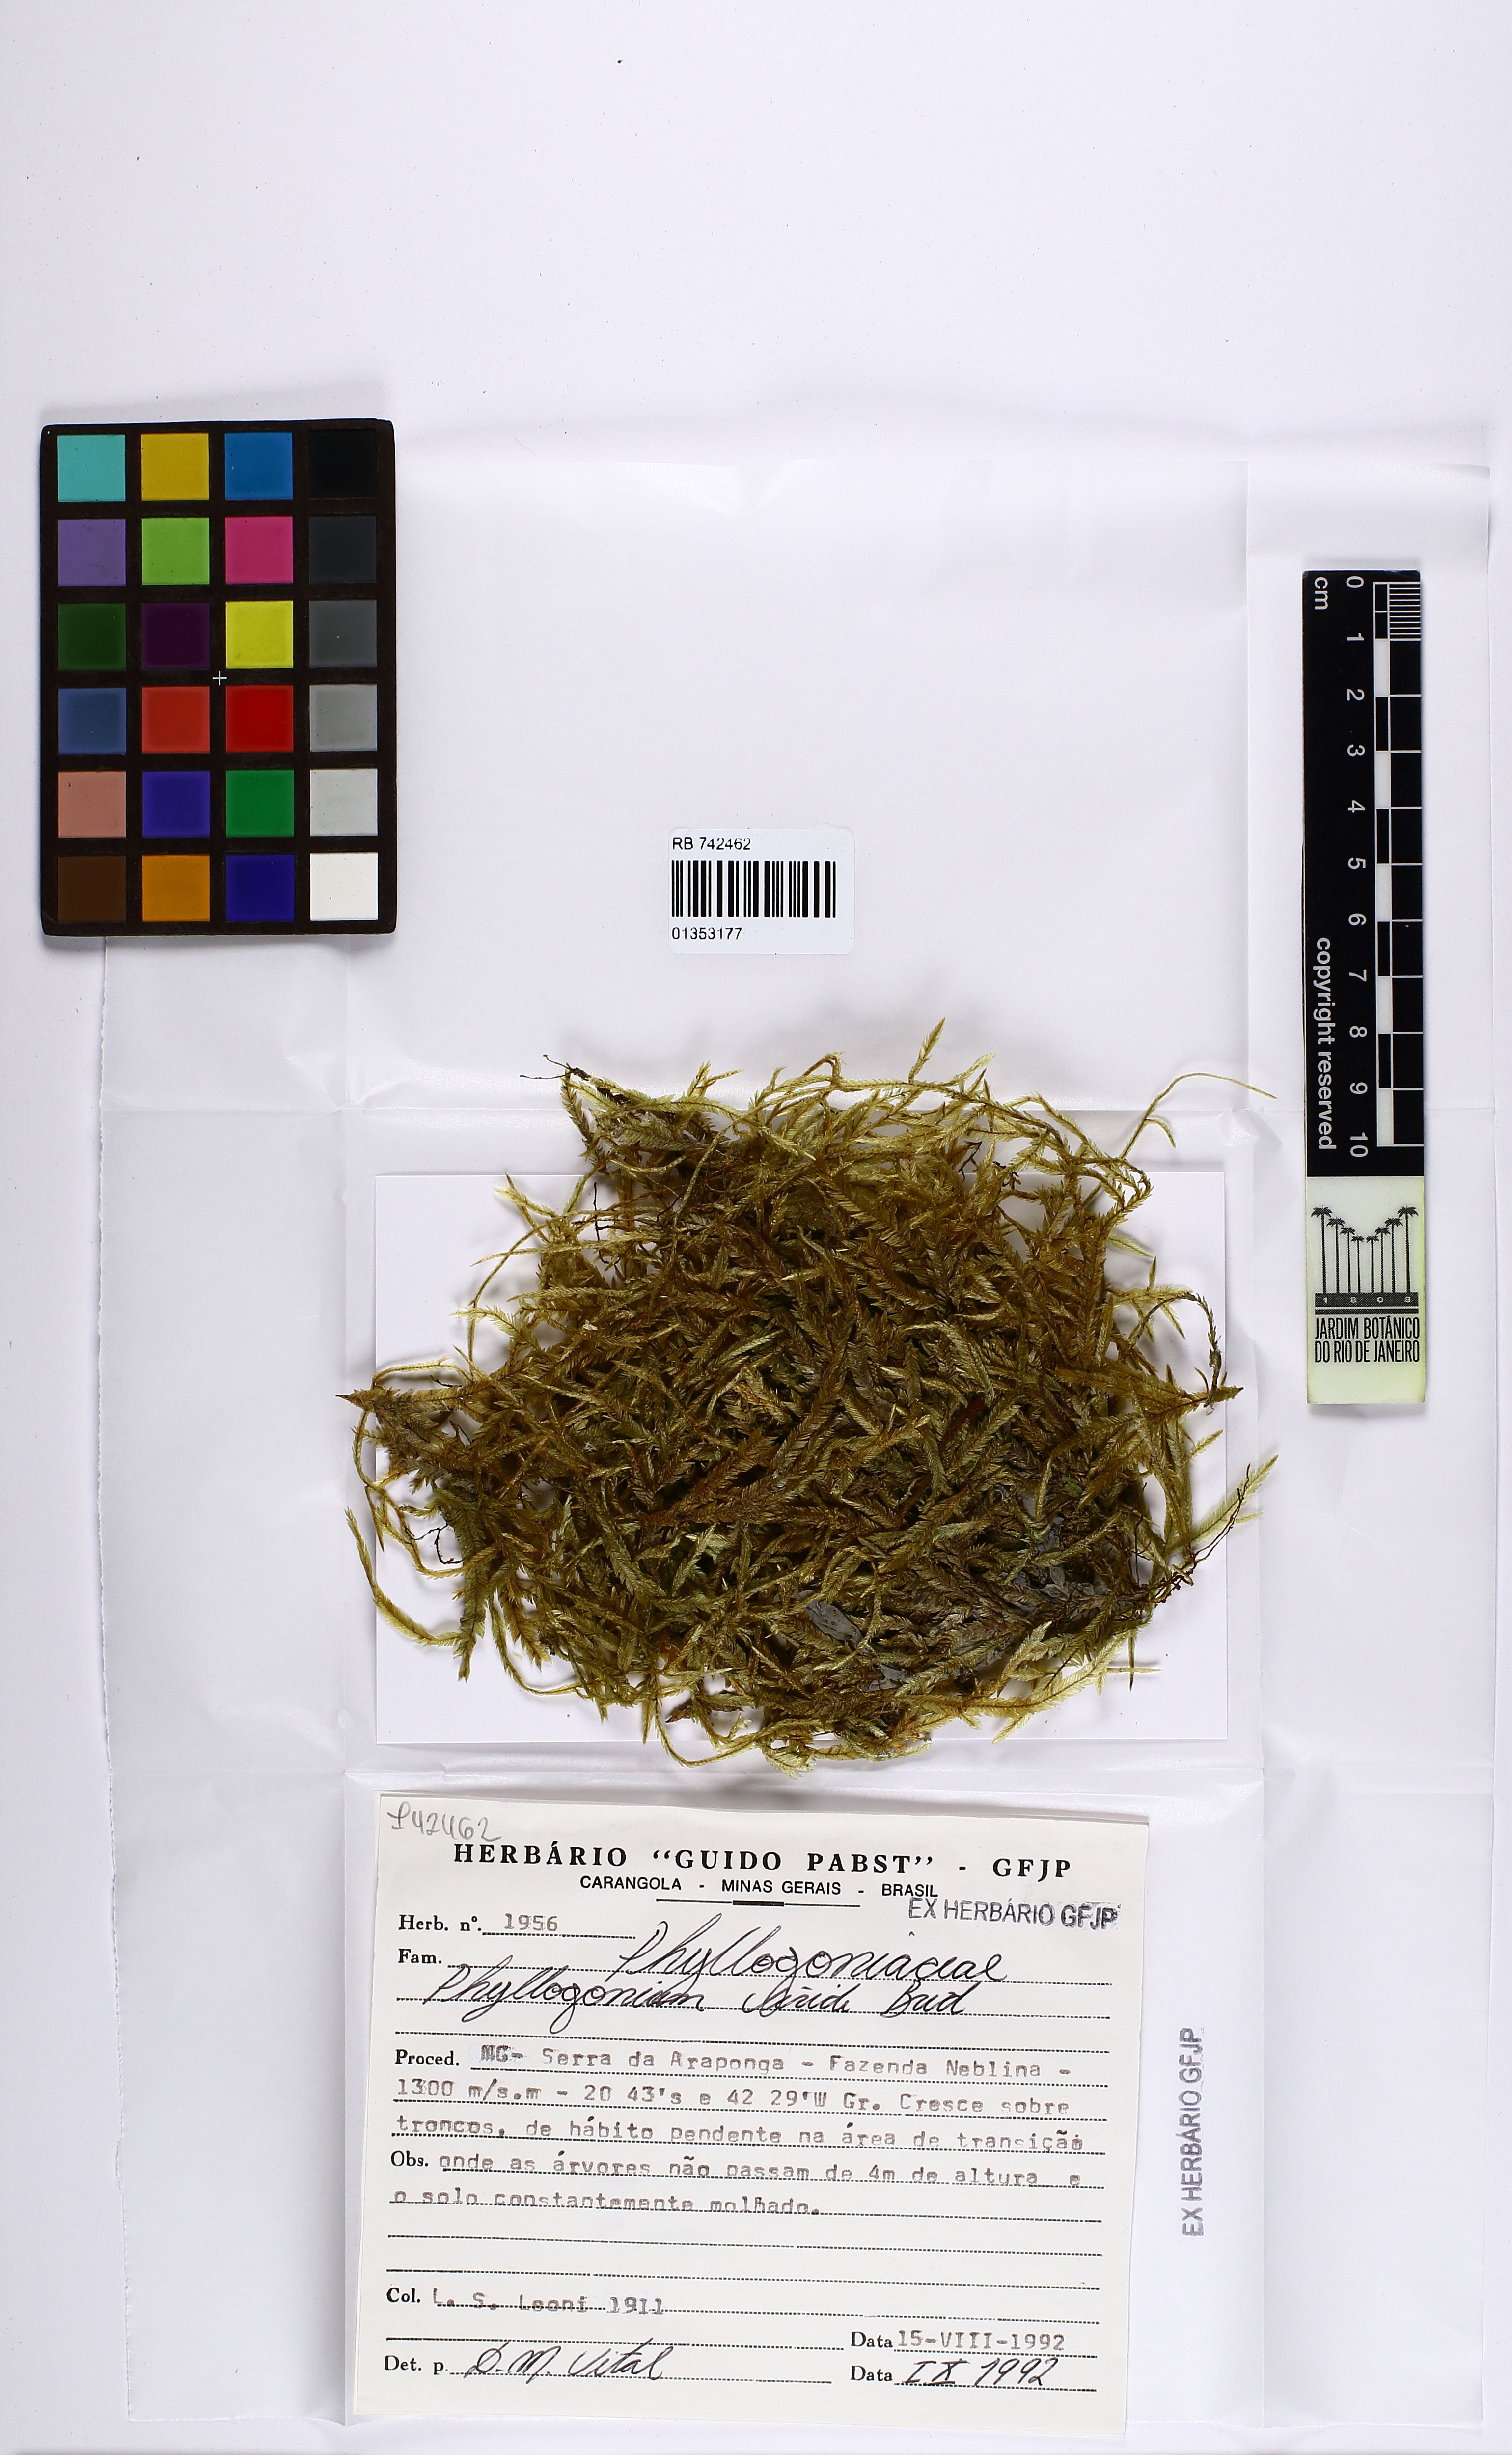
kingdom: Plantae
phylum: Bryophyta
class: Bryopsida
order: Hypnales
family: Phyllogoniaceae
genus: Phyllogonium
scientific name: Phyllogonium viride
